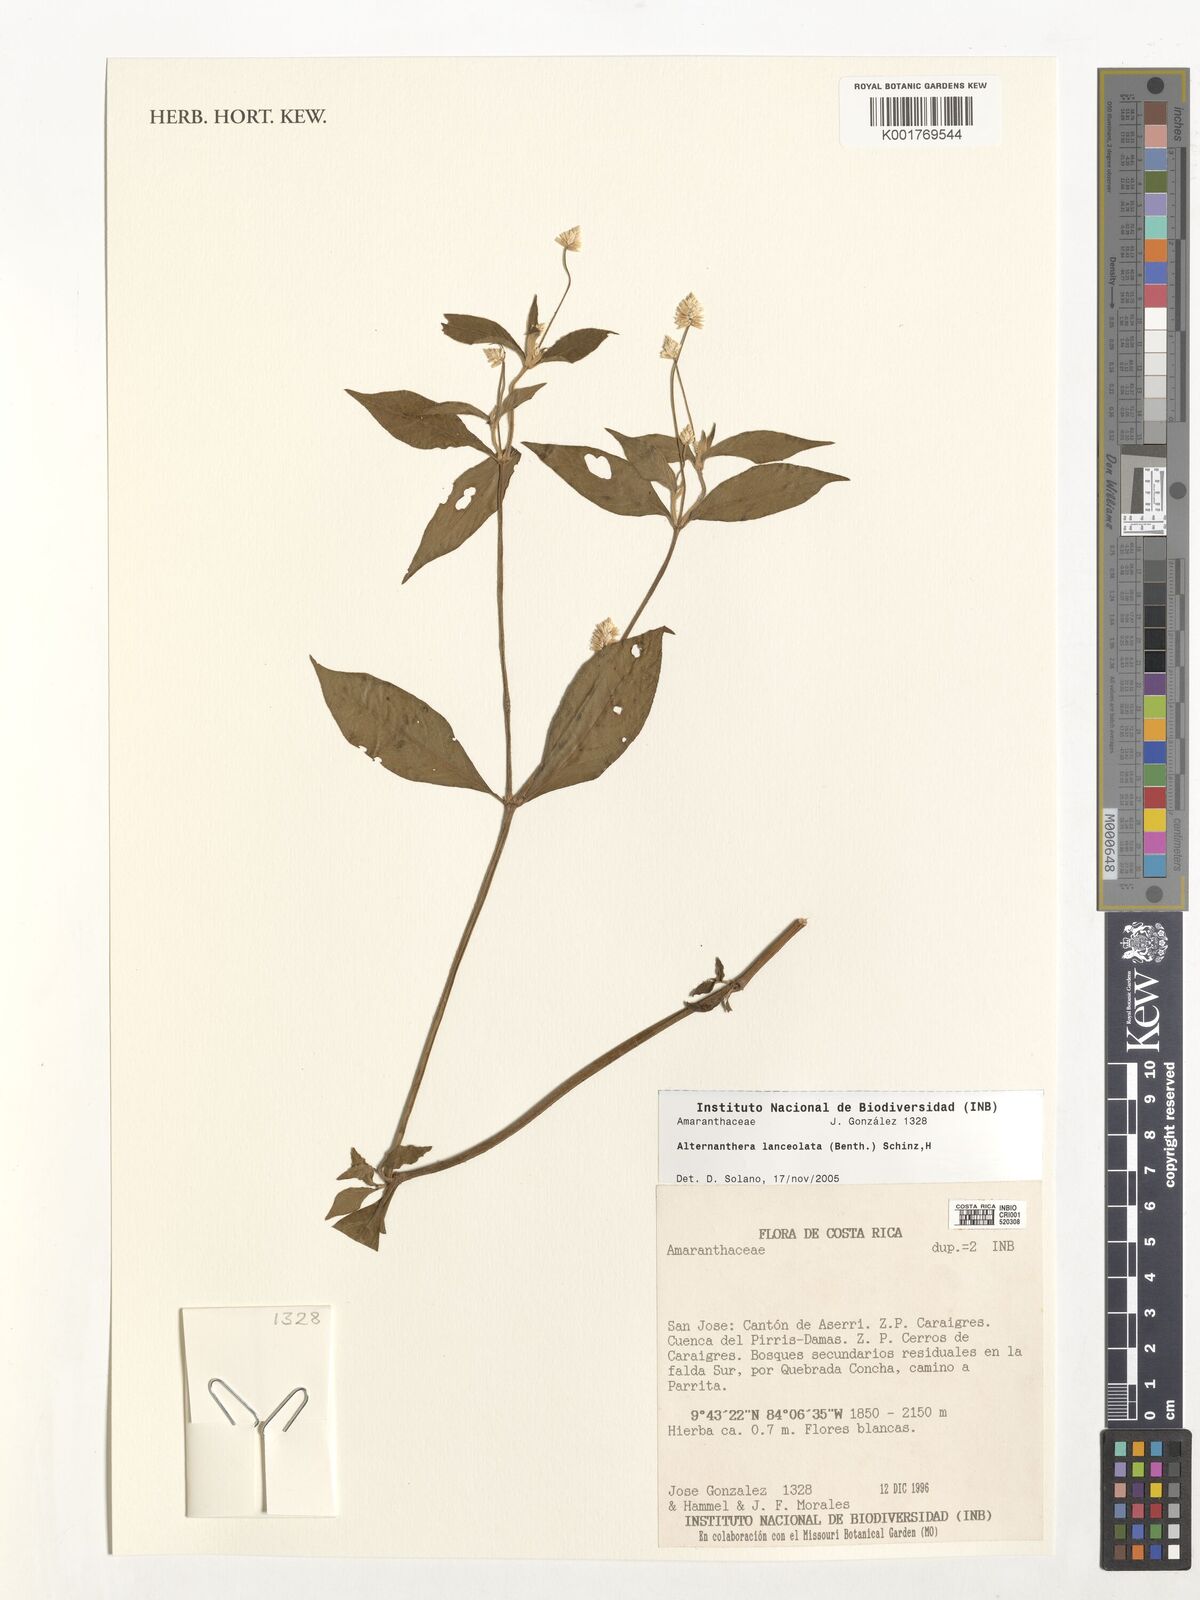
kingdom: Plantae
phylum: Tracheophyta
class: Magnoliopsida
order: Caryophyllales
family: Amaranthaceae
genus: Alternanthera
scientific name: Alternanthera lanceolata
